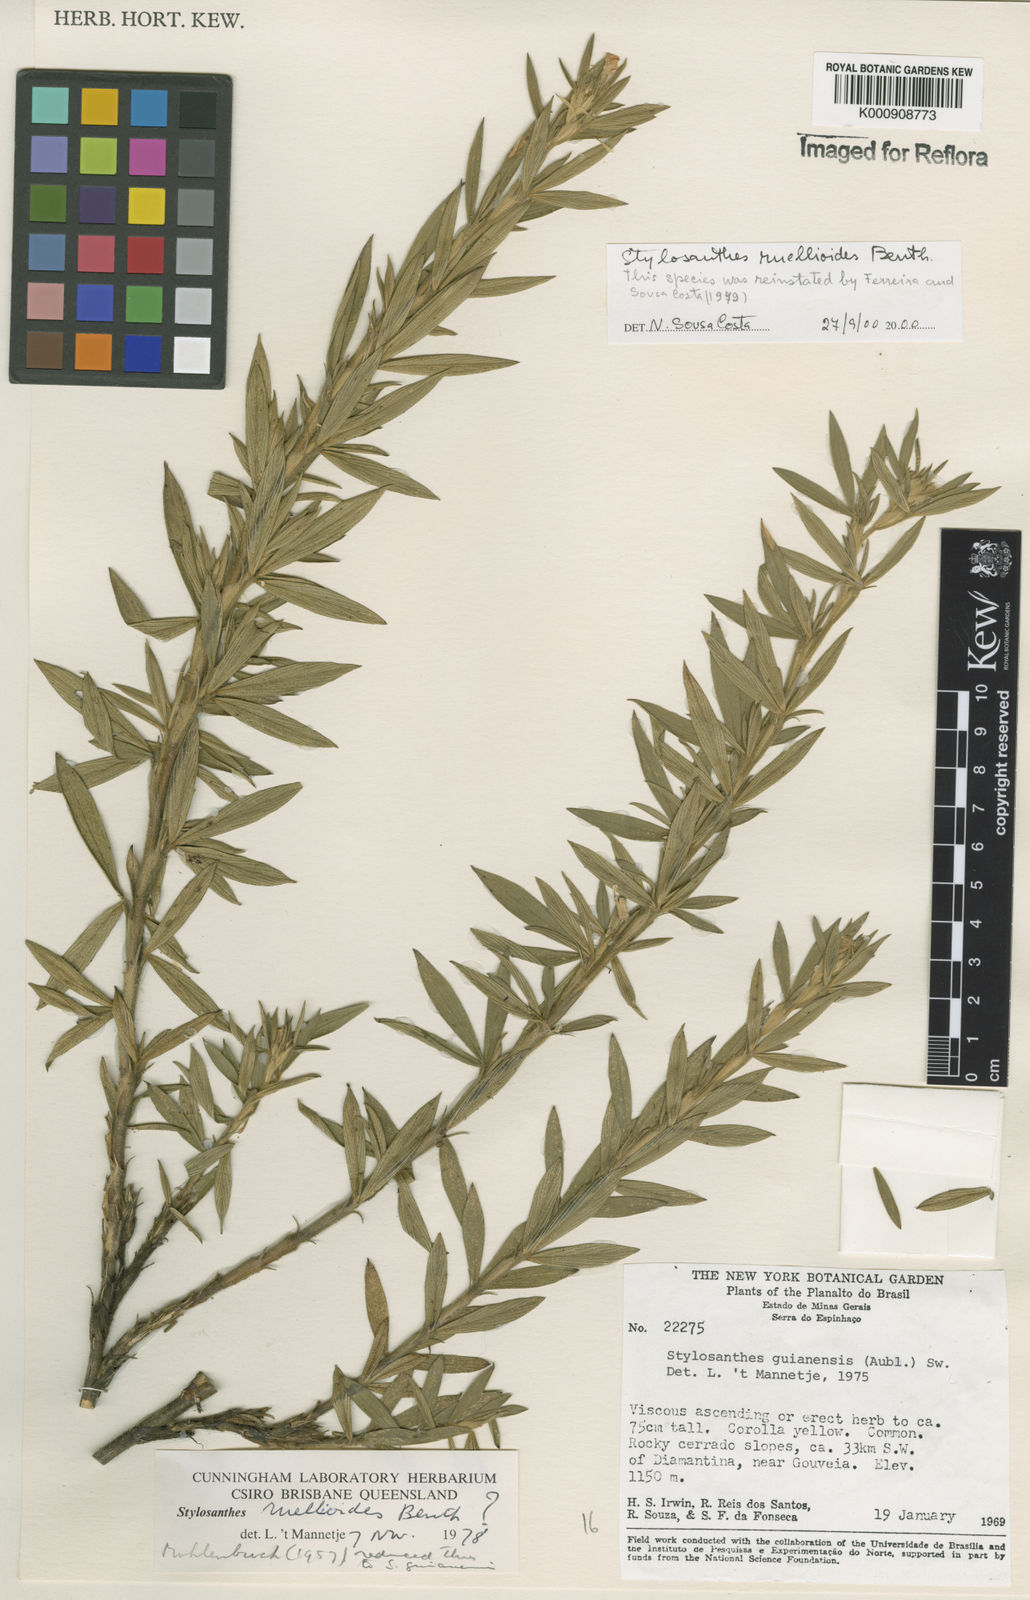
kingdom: Plantae
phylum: Tracheophyta
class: Magnoliopsida
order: Fabales
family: Fabaceae
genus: Stylosanthes
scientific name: Stylosanthes ruellioides
